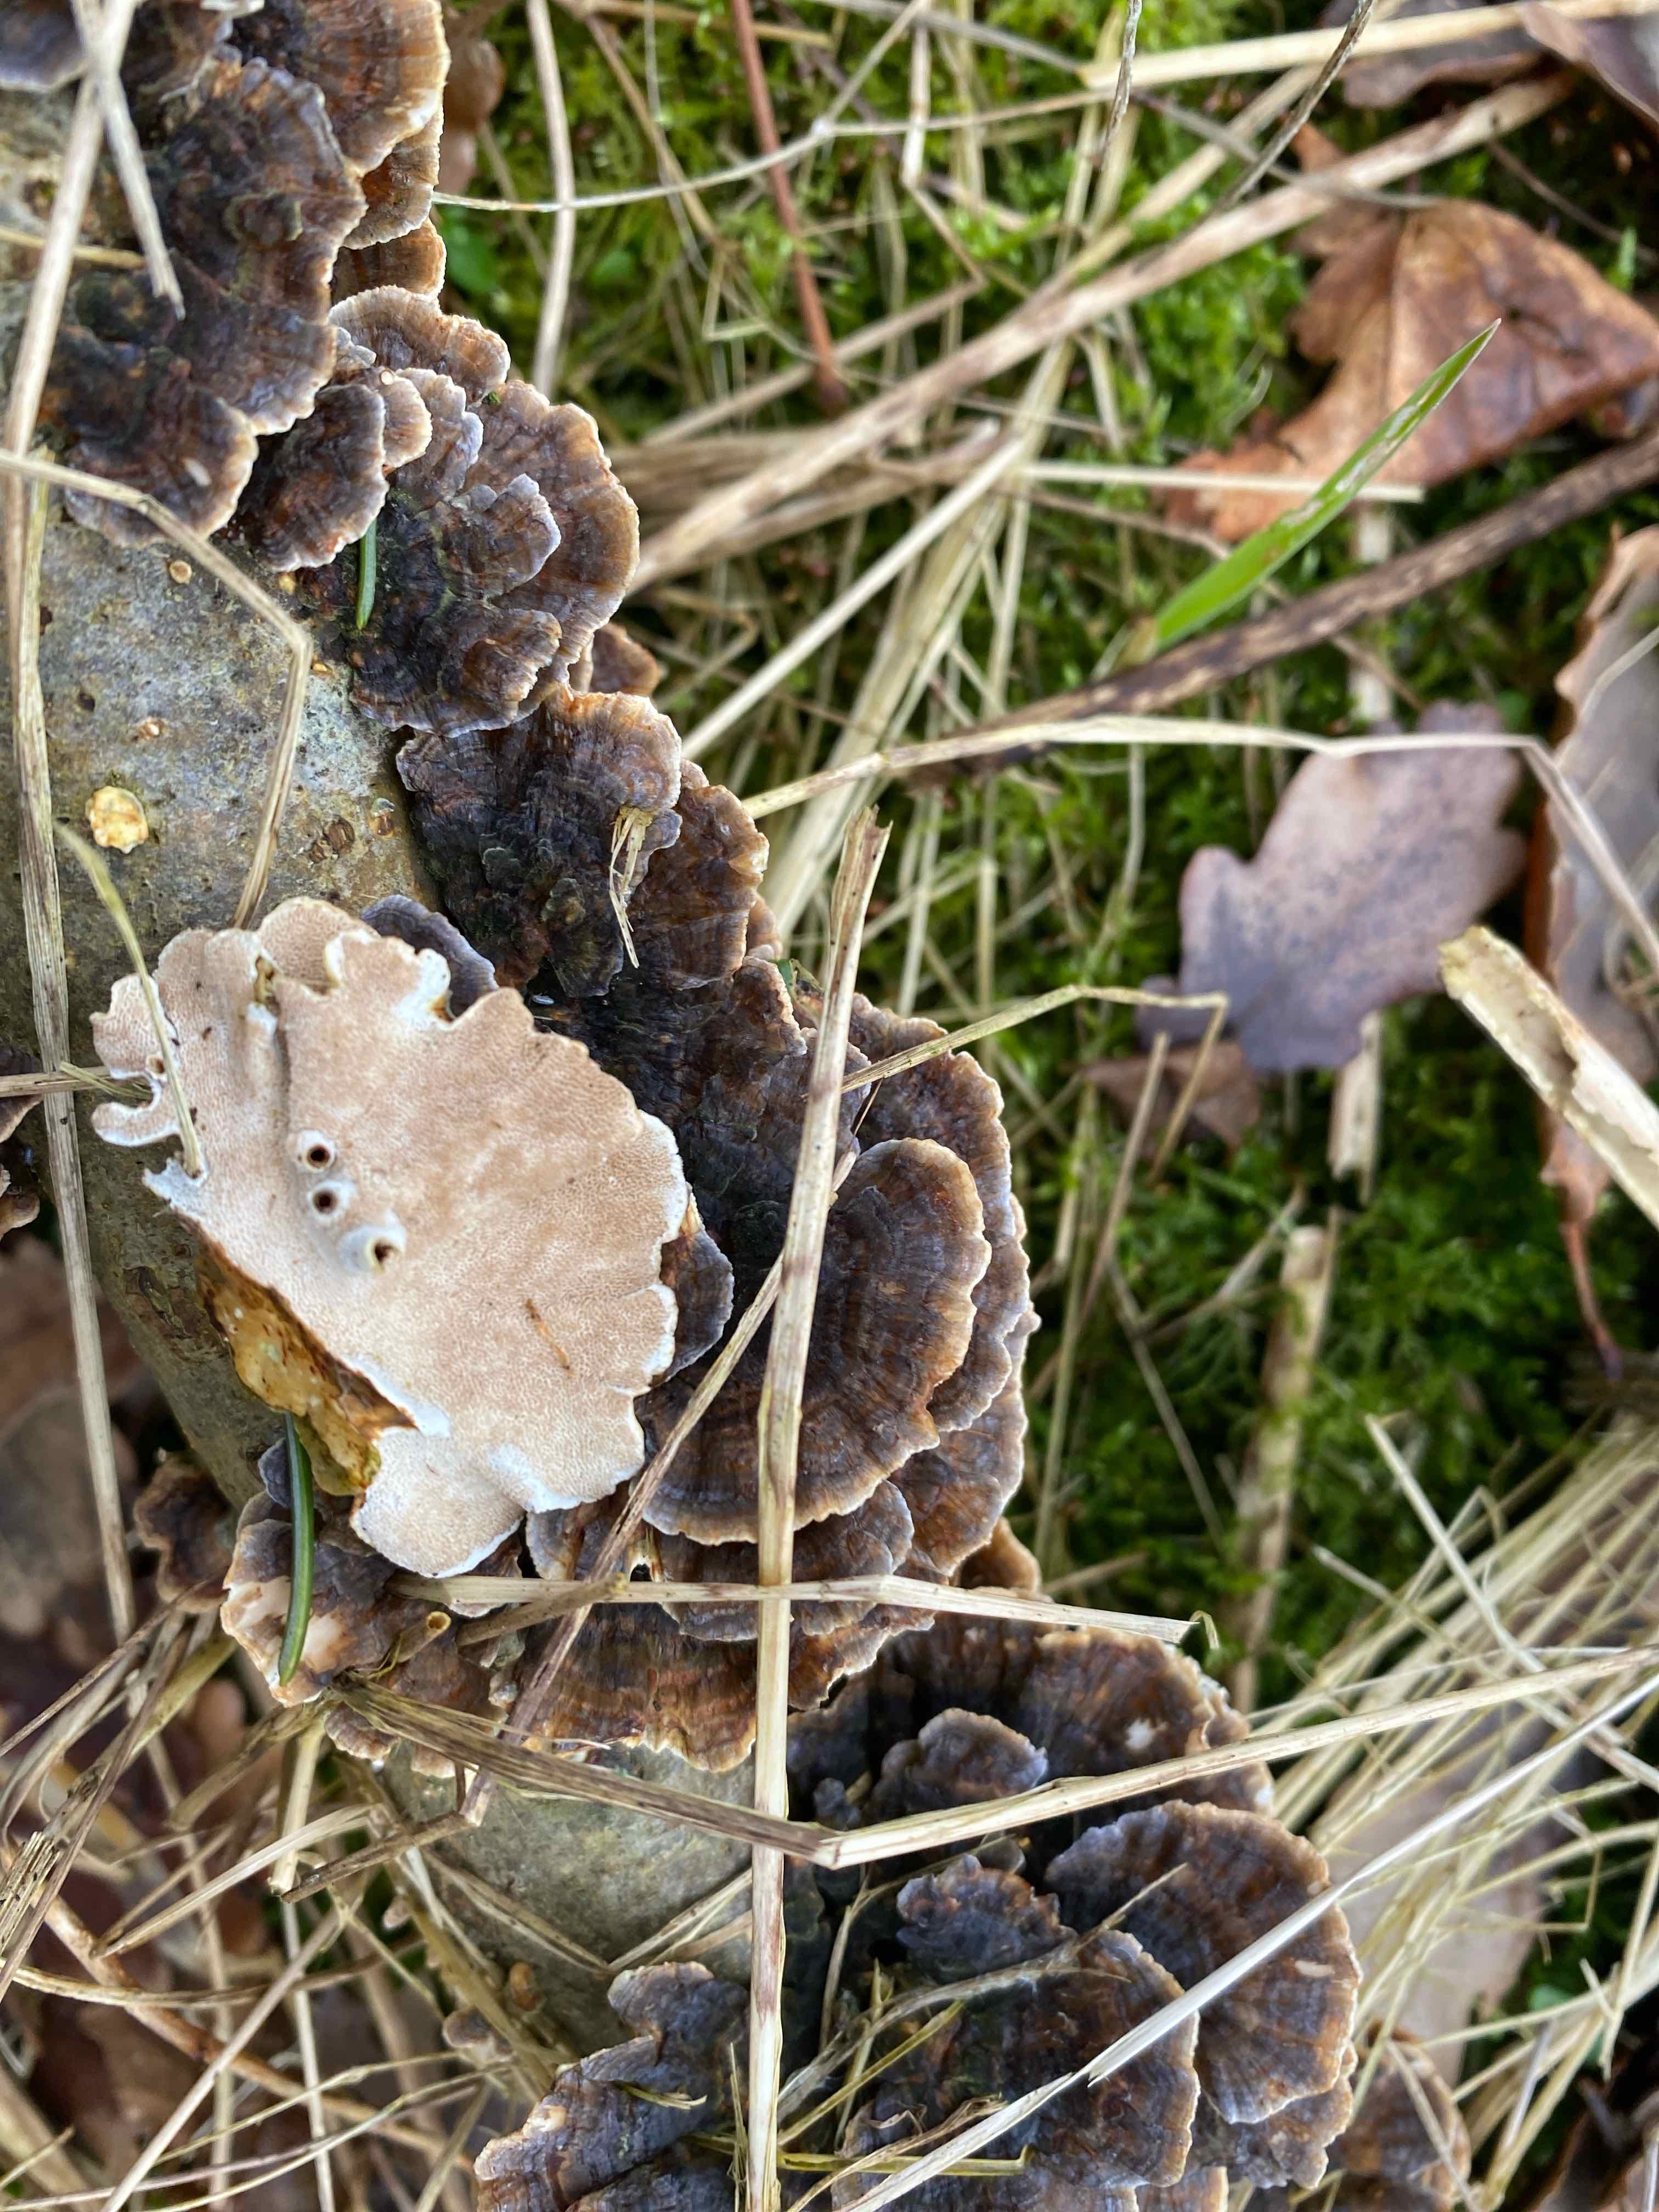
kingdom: Fungi
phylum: Basidiomycota
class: Agaricomycetes
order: Polyporales
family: Polyporaceae
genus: Trametes
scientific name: Trametes versicolor
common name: broget læderporesvamp
